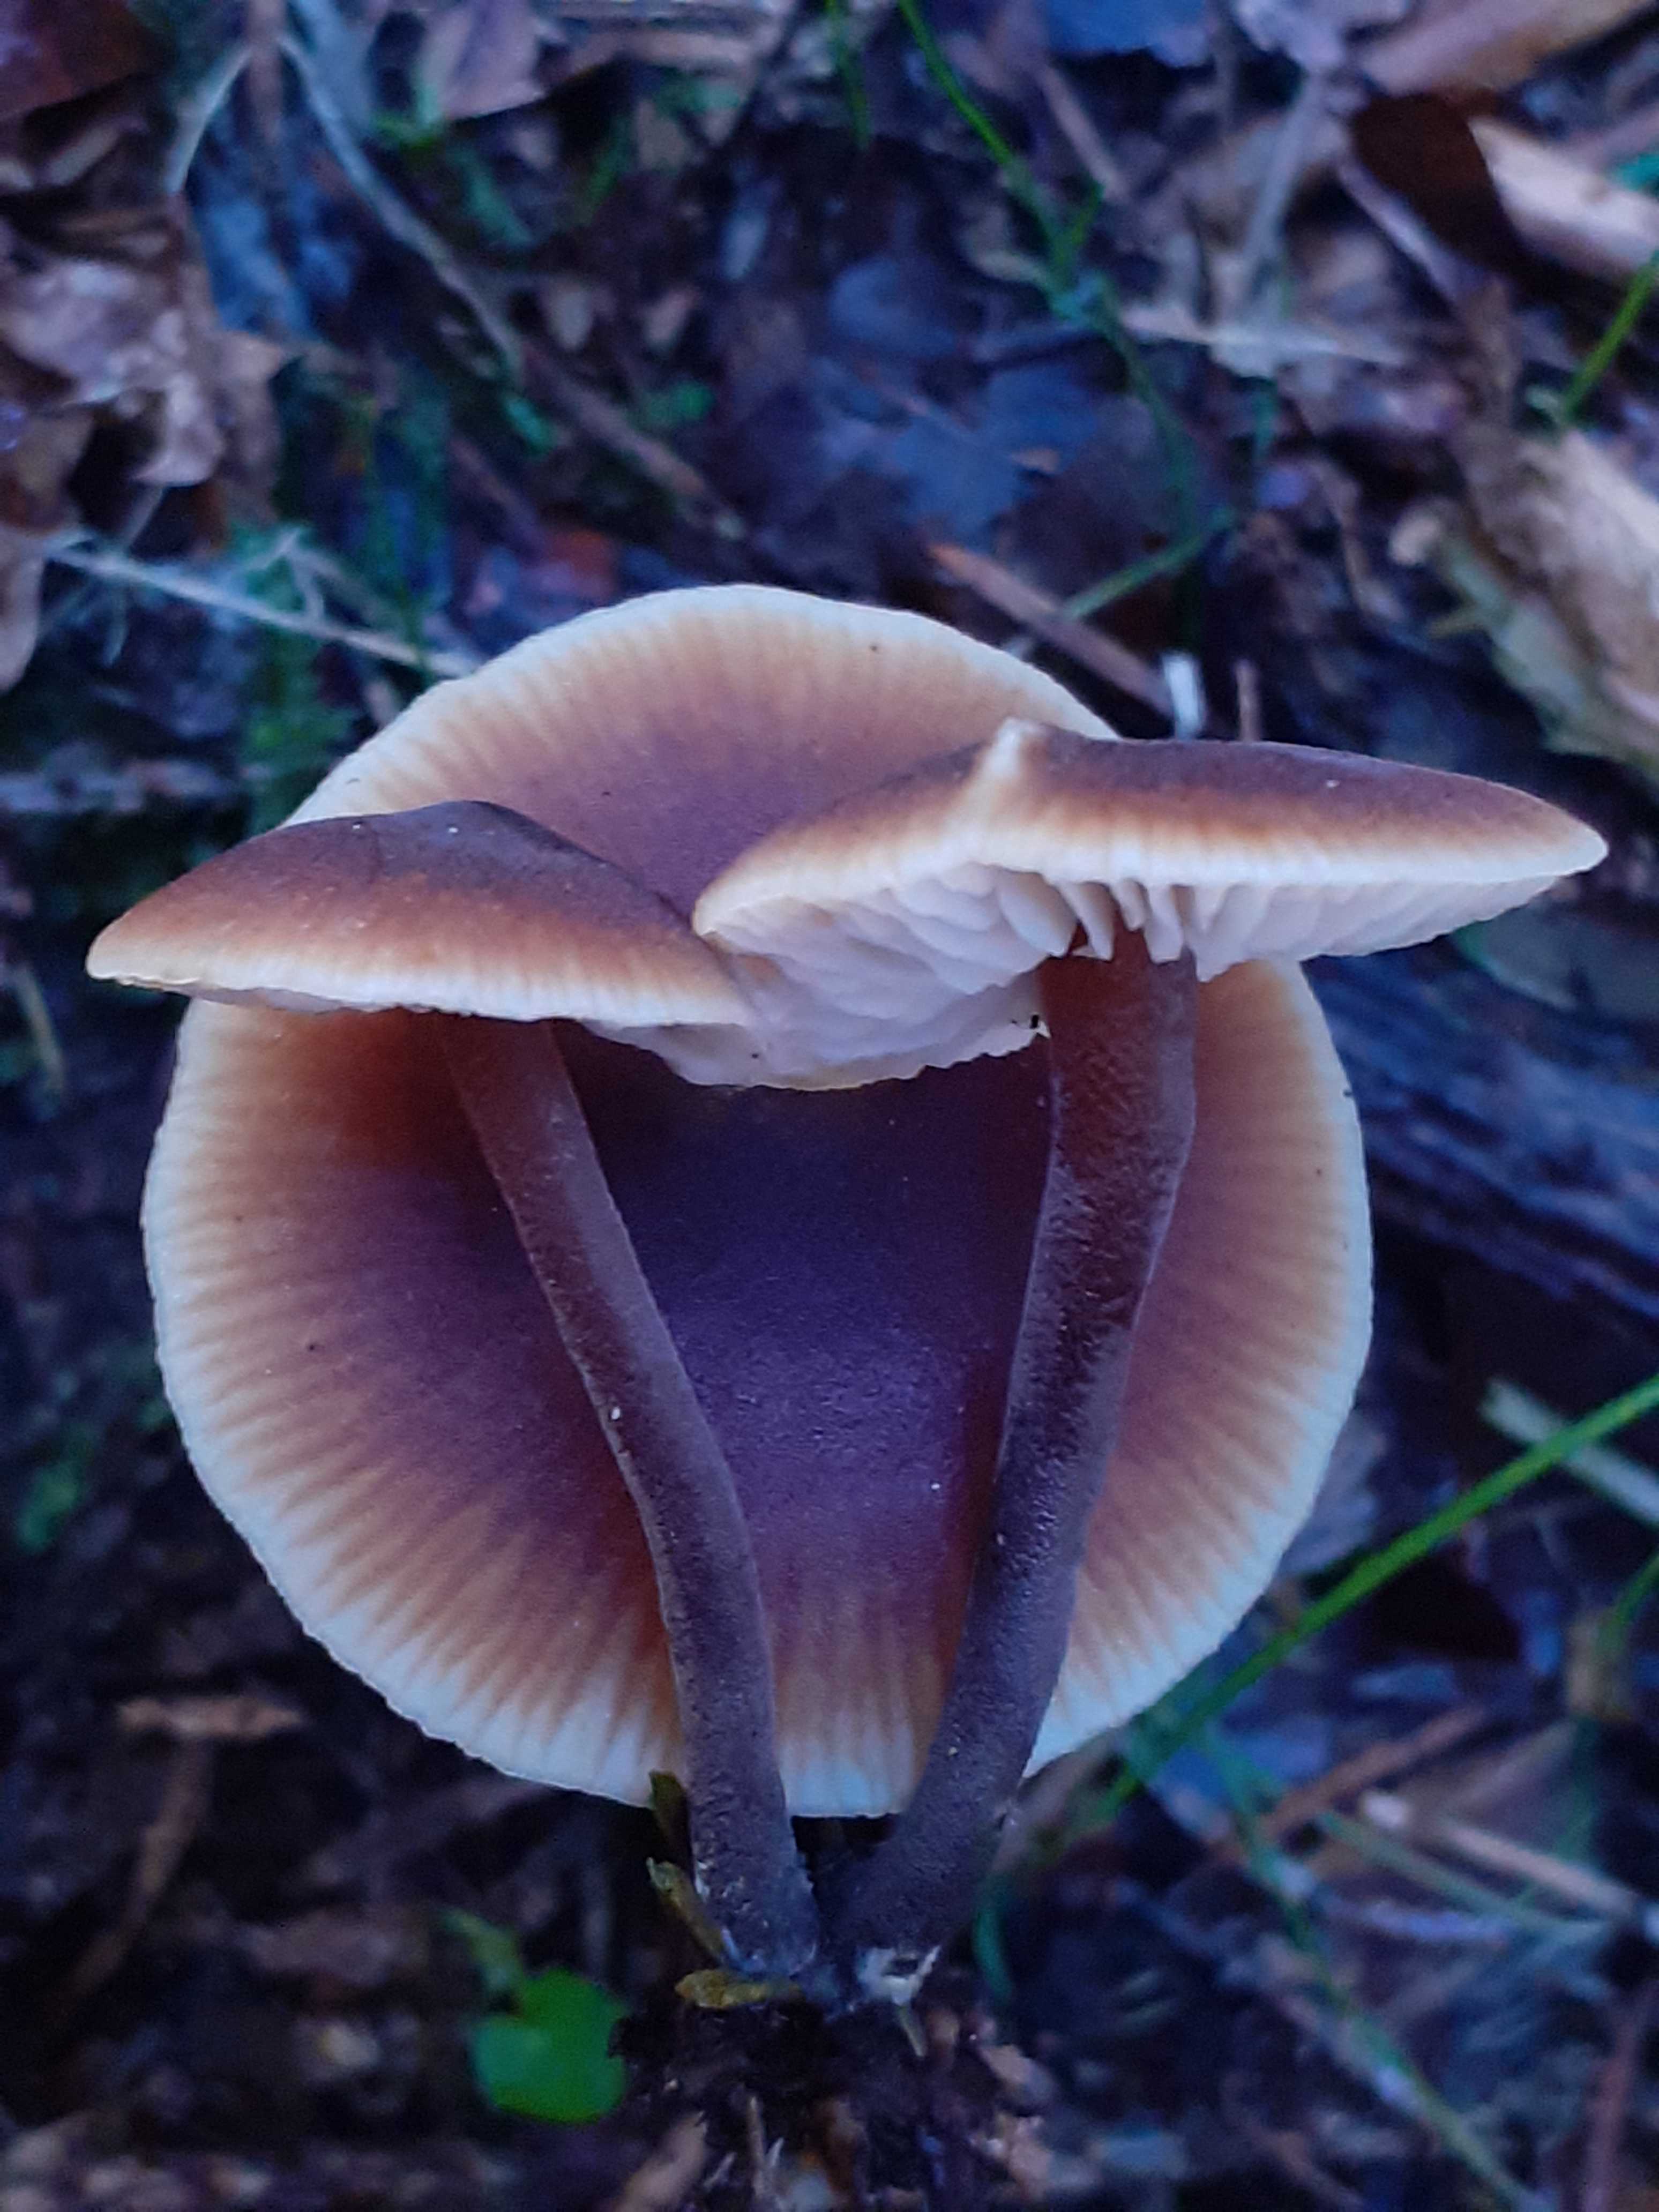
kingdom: Fungi
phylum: Basidiomycota
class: Agaricomycetes
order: Agaricales
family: Macrocystidiaceae
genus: Macrocystidia
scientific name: Macrocystidia cucumis
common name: agurkehat
